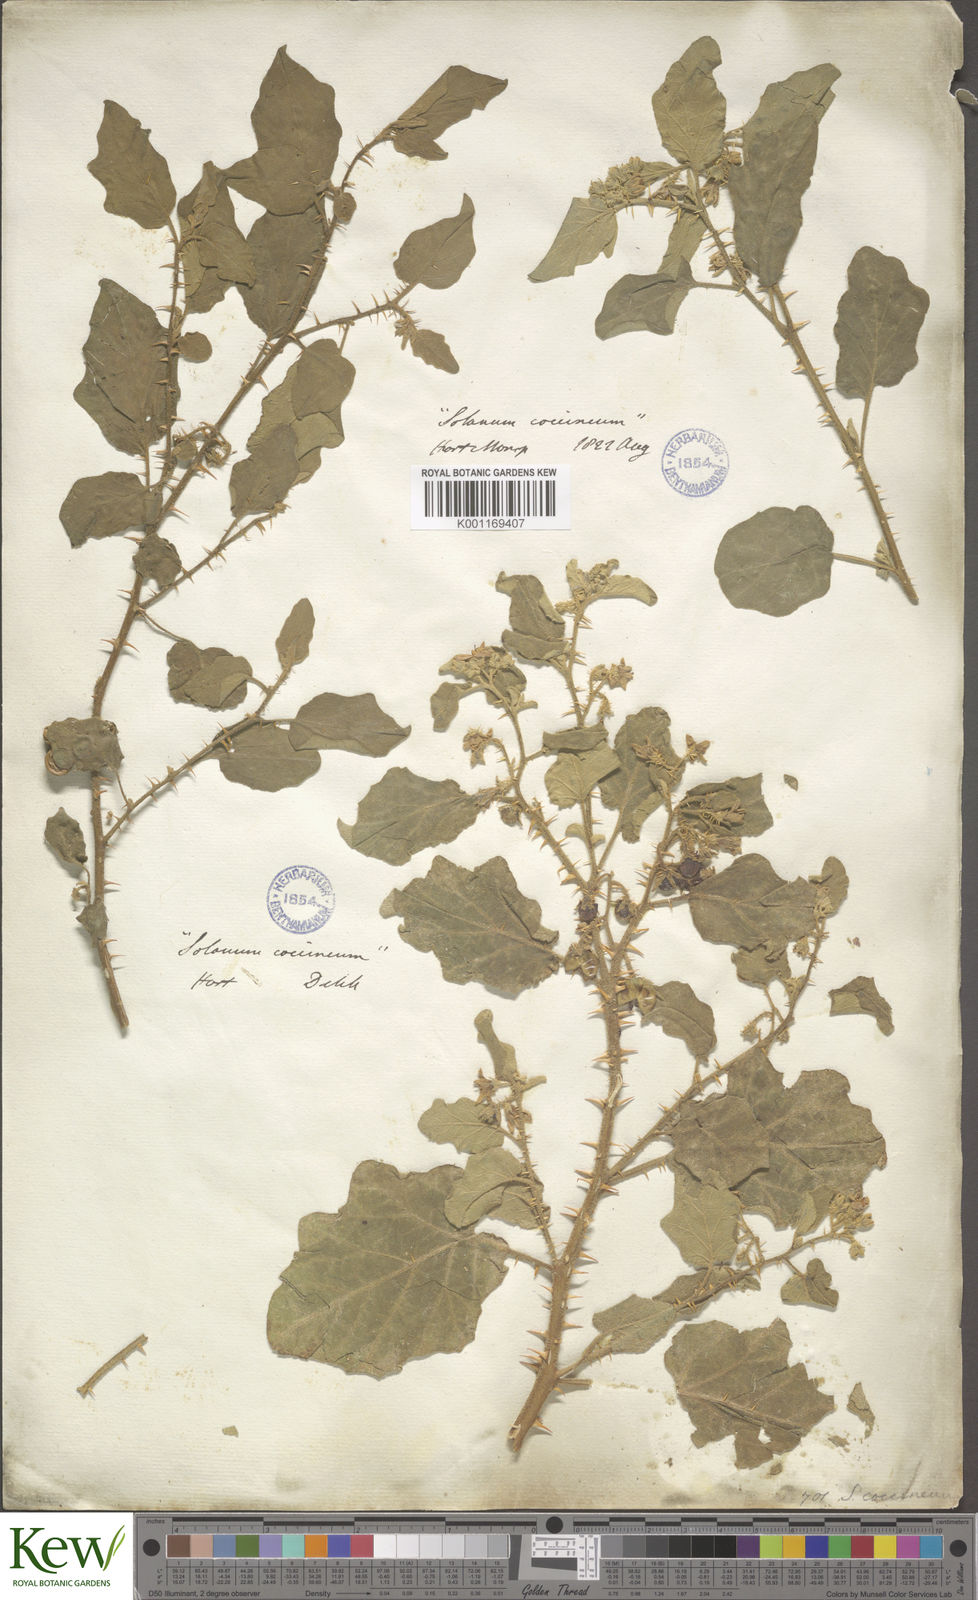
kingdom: Plantae
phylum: Tracheophyta
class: Magnoliopsida
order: Solanales
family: Solanaceae
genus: Solanum
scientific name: Solanum tomentosum
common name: Wild aubergine
